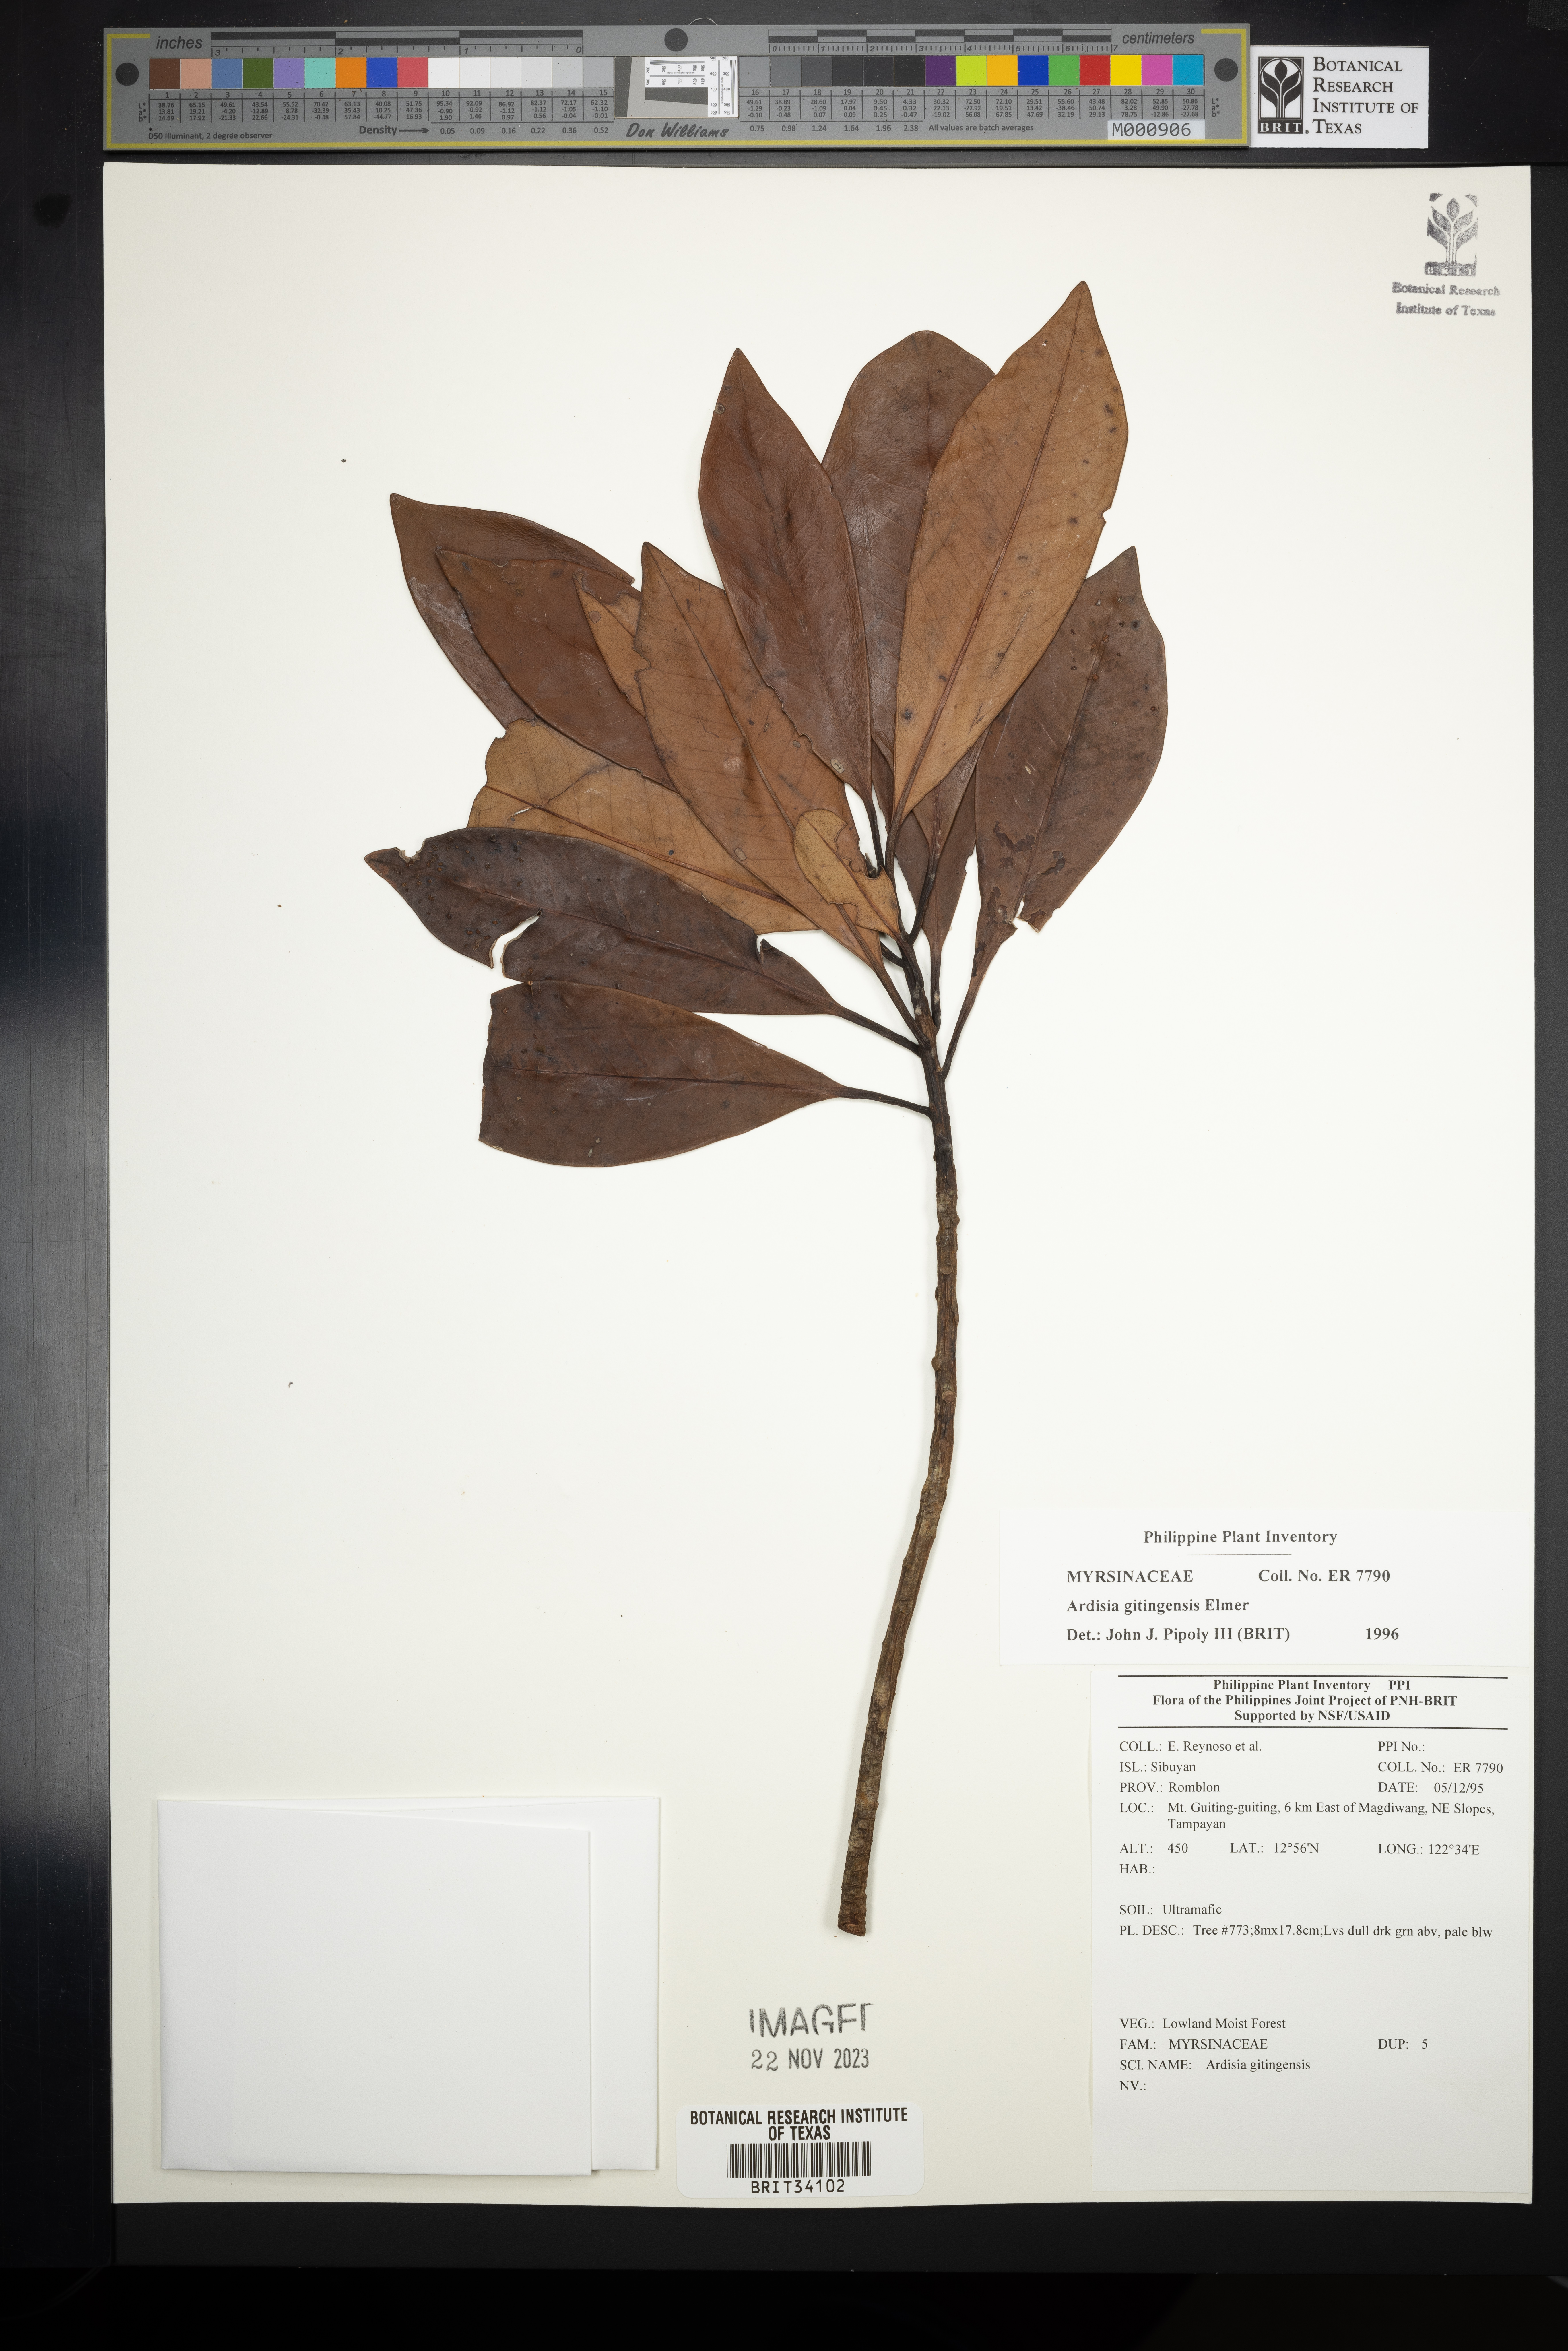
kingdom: Plantae
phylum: Tracheophyta
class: Magnoliopsida
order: Ericales
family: Primulaceae
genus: Ardisia
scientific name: Ardisia darlingii
